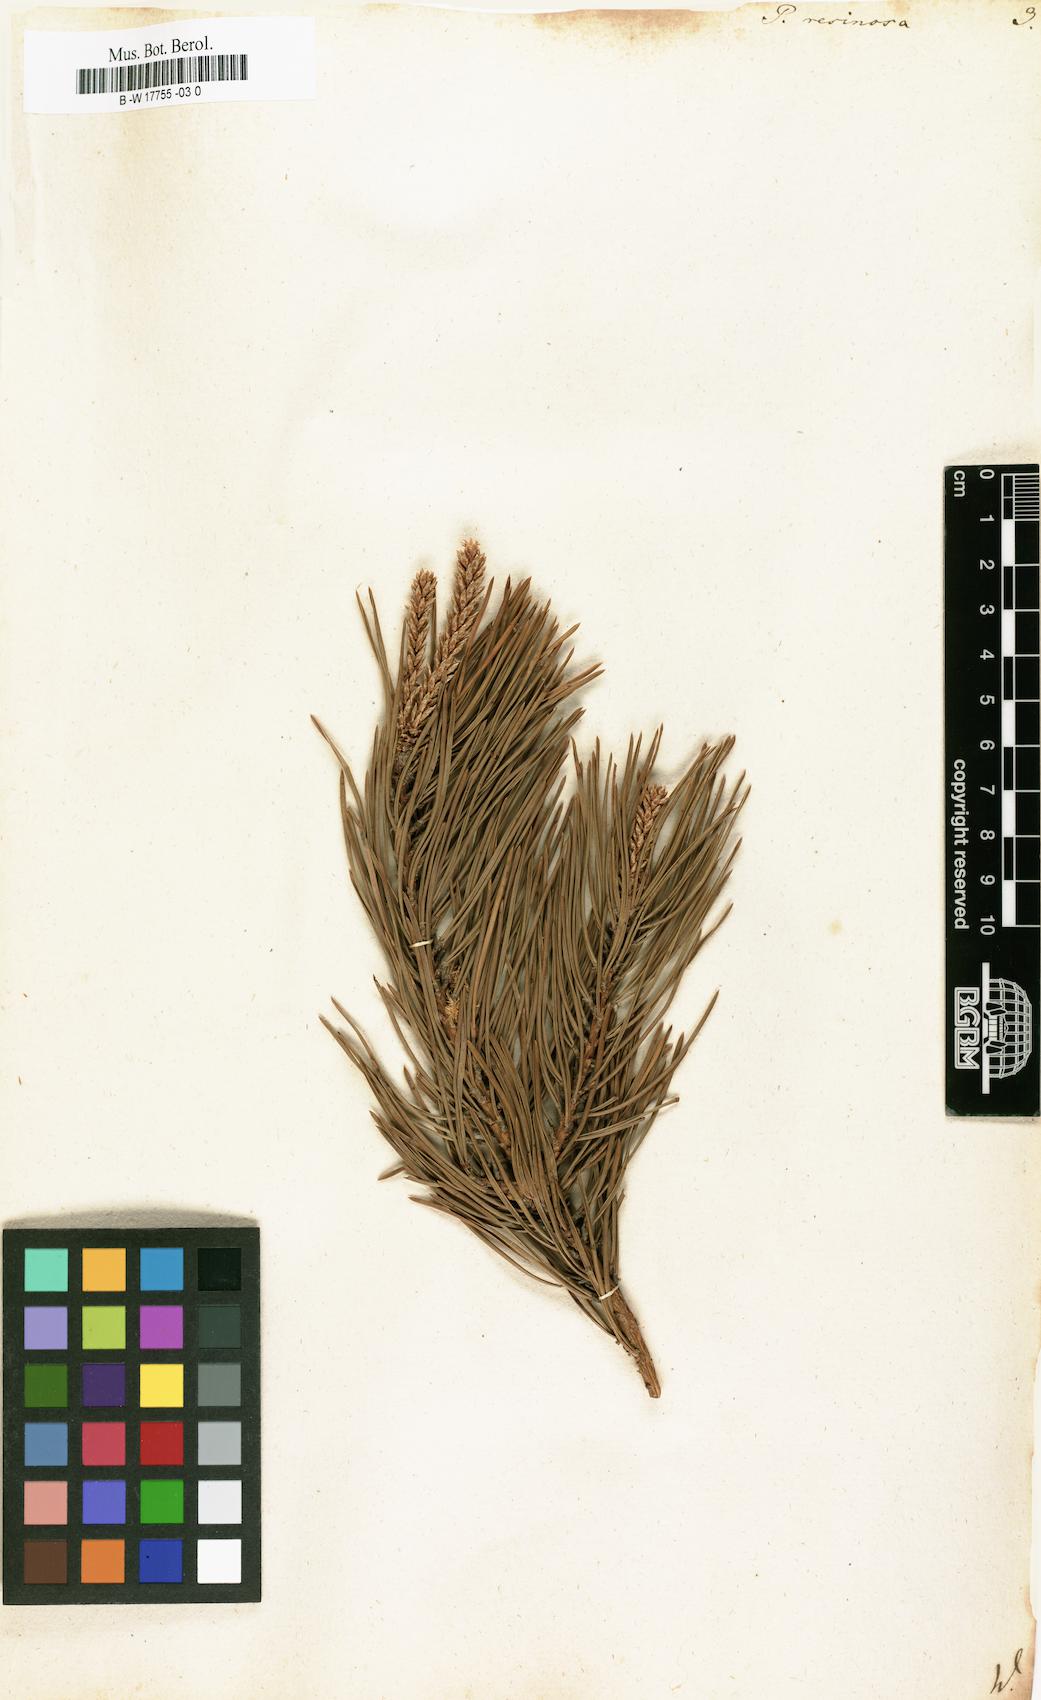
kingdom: Plantae
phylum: Tracheophyta
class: Pinopsida
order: Pinales
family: Pinaceae
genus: Pinus
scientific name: Pinus resinosa
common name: Norway pine
